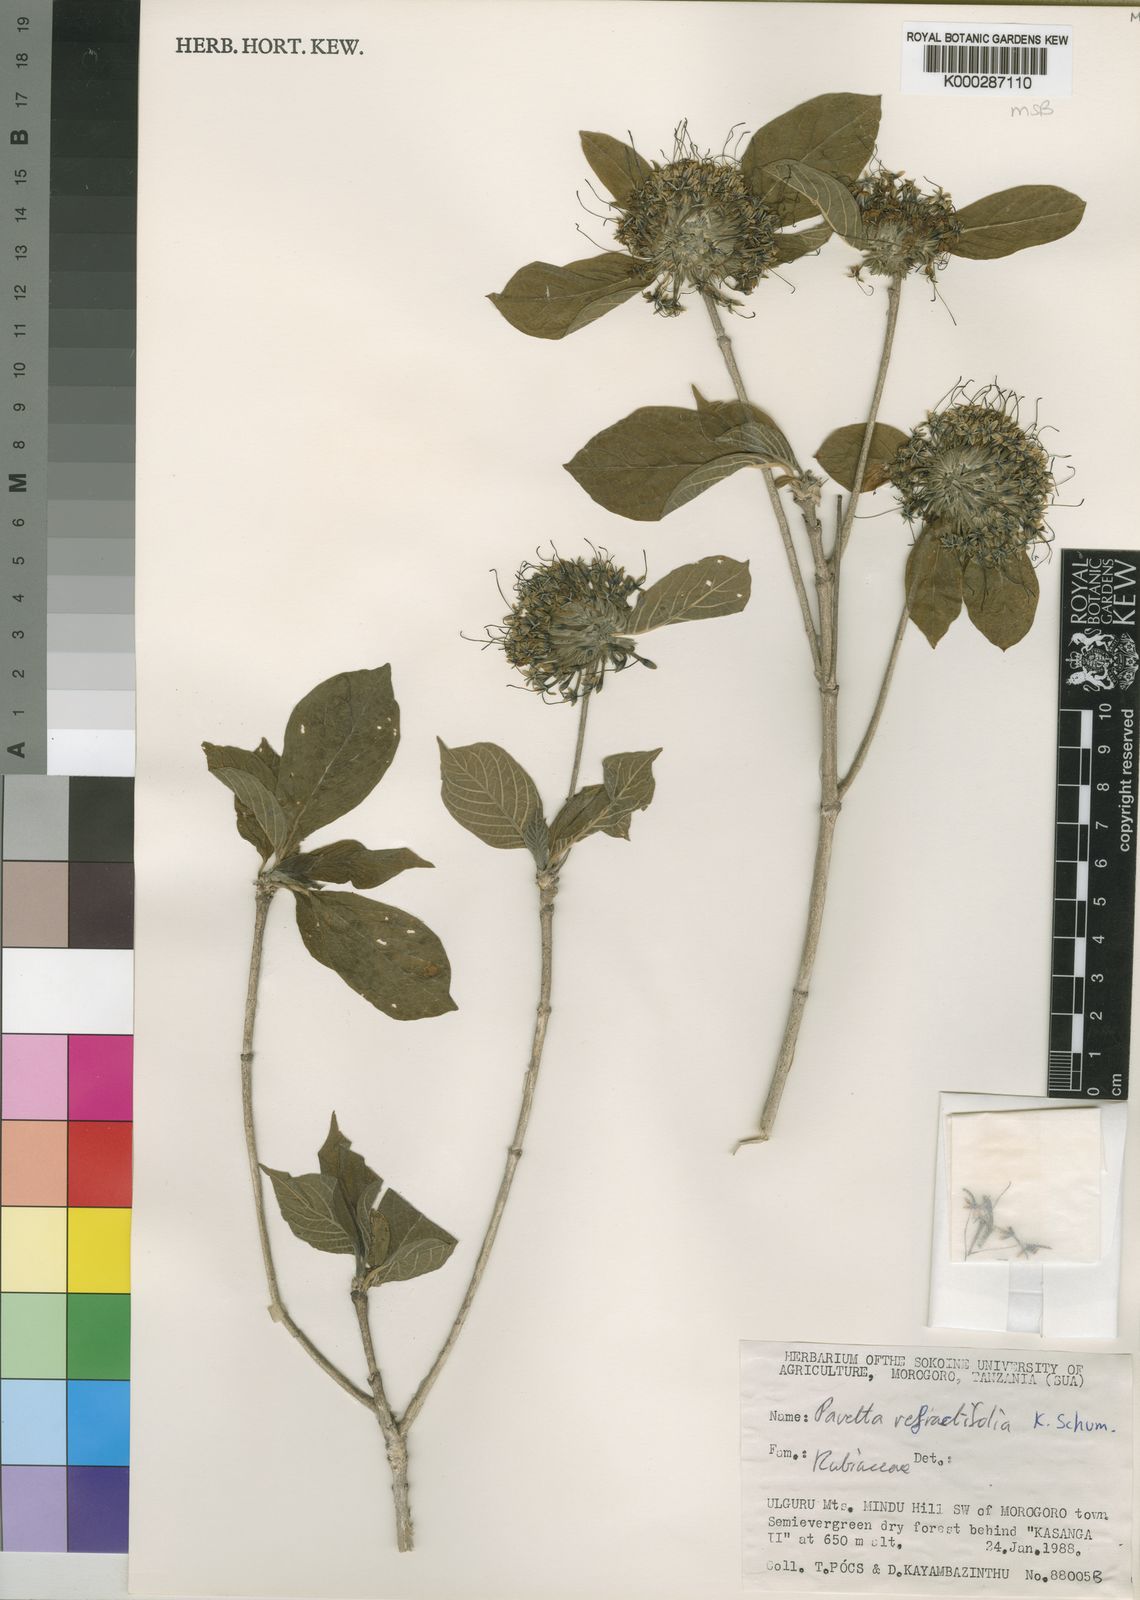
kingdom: Plantae
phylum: Tracheophyta
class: Magnoliopsida
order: Gentianales
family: Rubiaceae
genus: Pavetta
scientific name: Pavetta refractifolia
